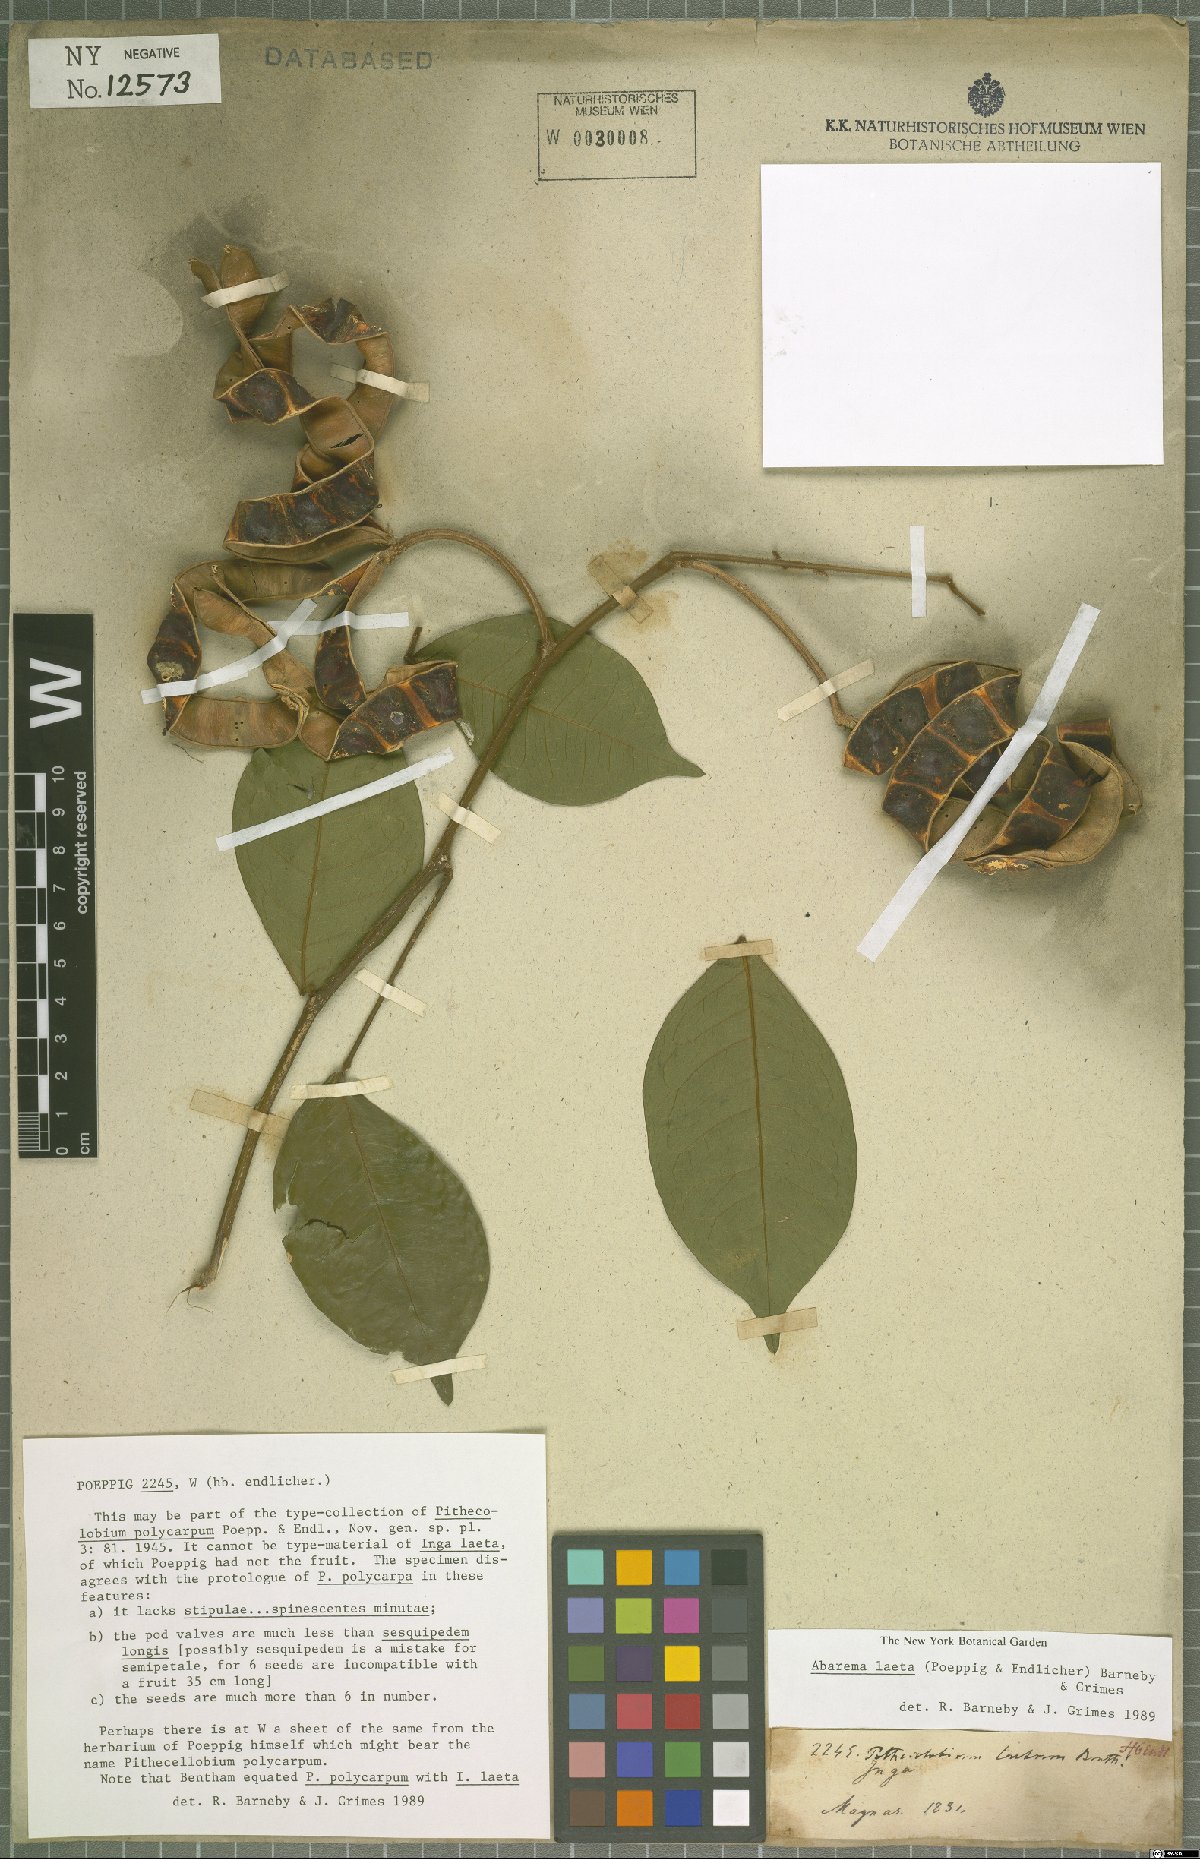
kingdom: Plantae
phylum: Tracheophyta
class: Magnoliopsida
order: Fabales
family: Fabaceae
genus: Jupunba
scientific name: Jupunba laeta
